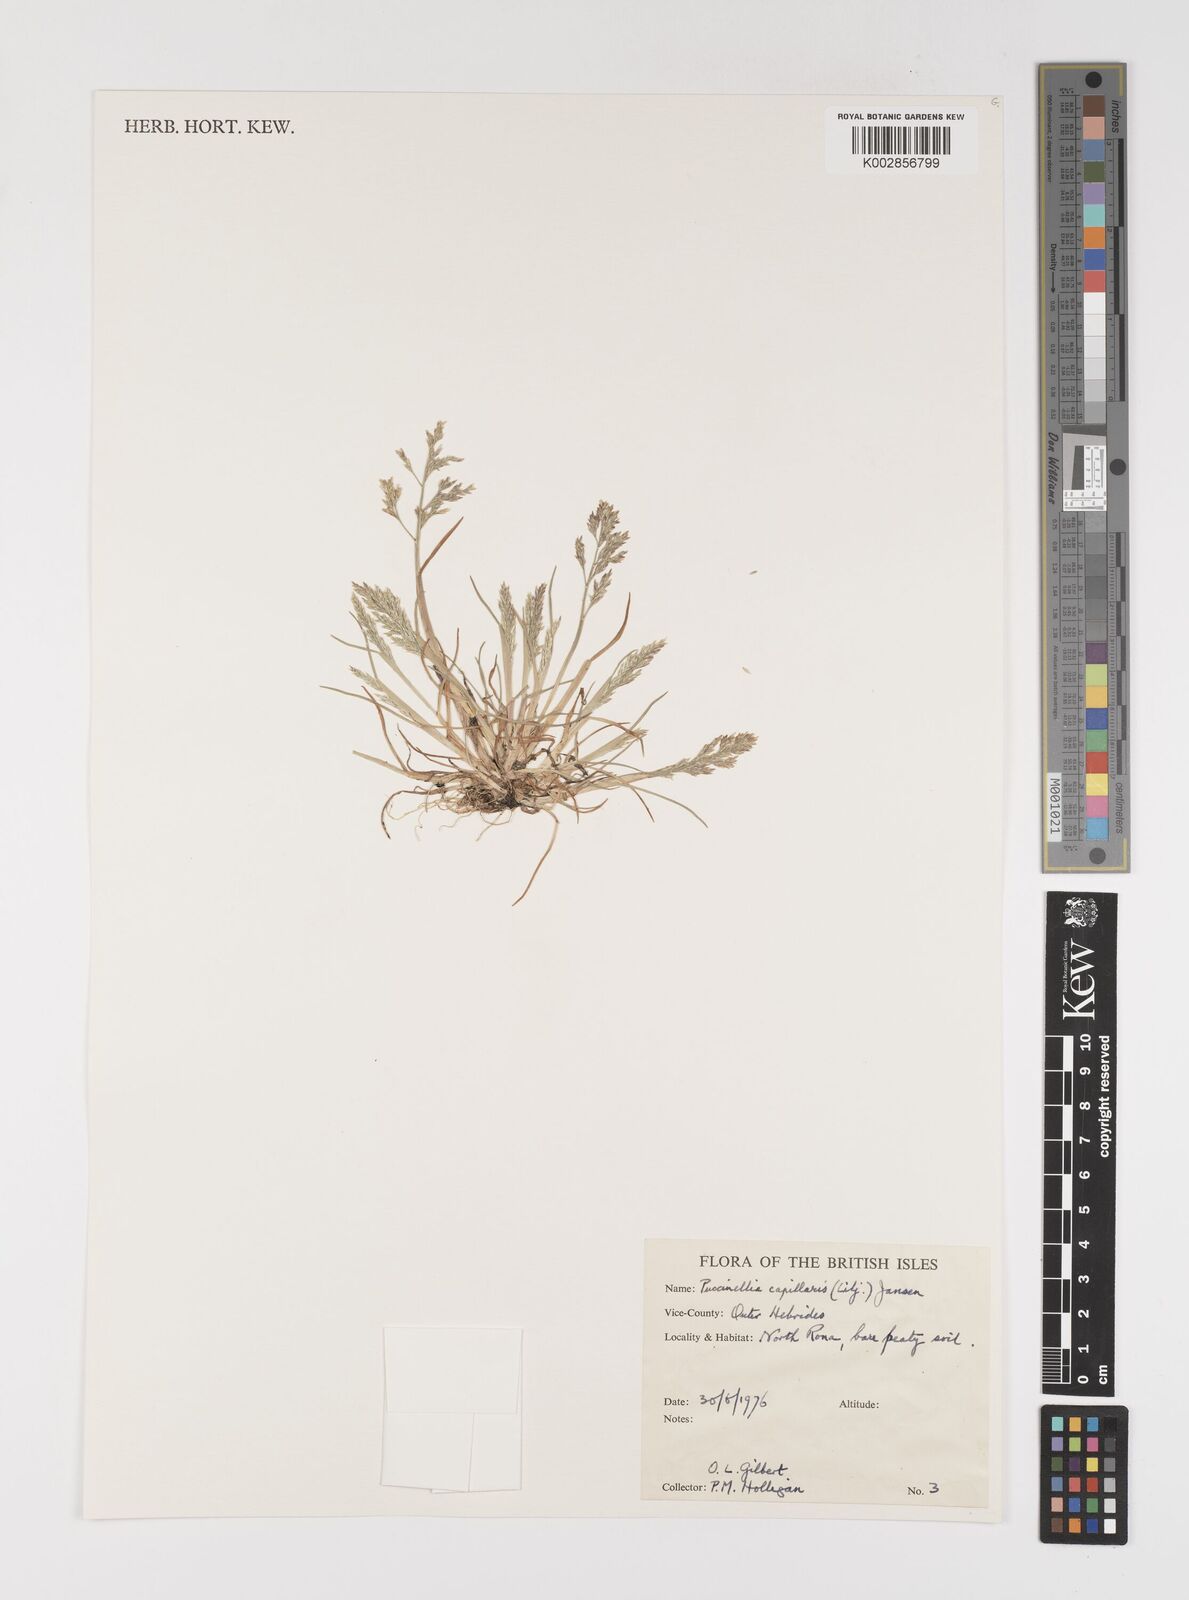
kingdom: Plantae
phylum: Tracheophyta
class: Liliopsida
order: Poales
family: Poaceae
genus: Puccinellia
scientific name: Puccinellia distans
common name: Weeping alkaligrass
